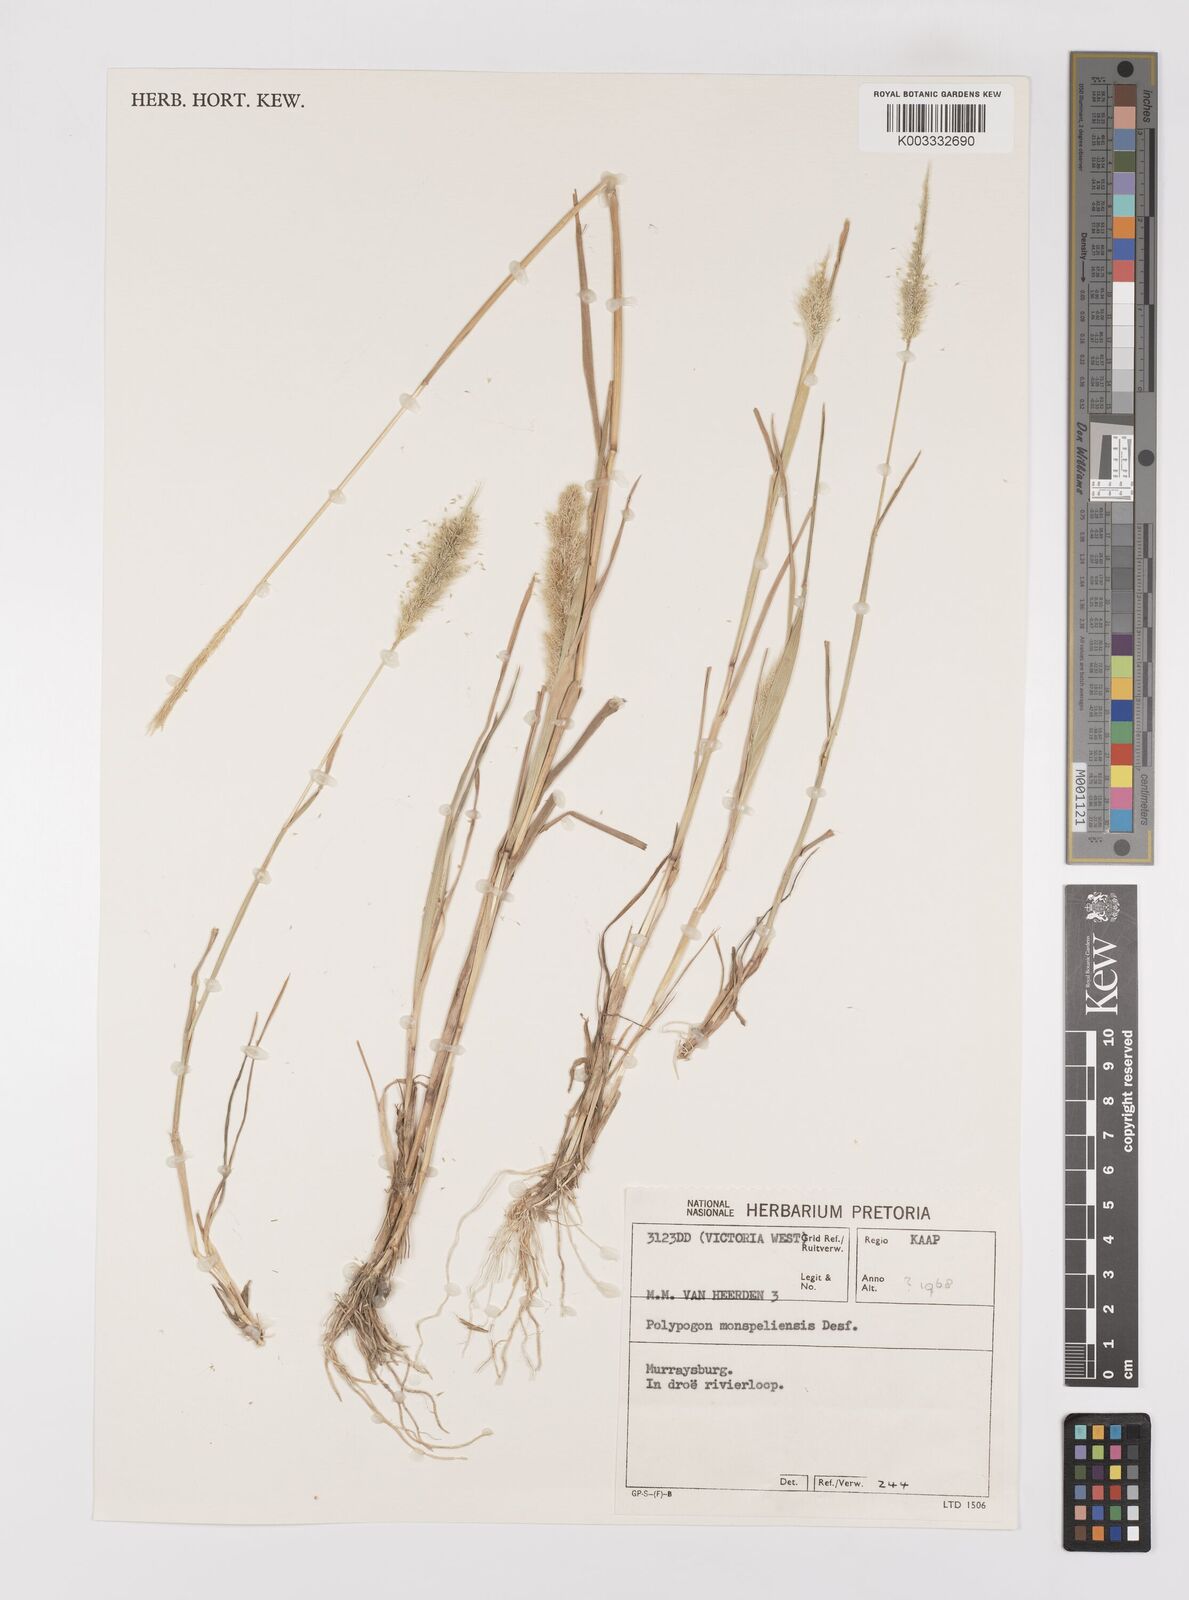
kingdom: Plantae
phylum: Tracheophyta
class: Liliopsida
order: Poales
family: Poaceae
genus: Polypogon
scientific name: Polypogon monspeliensis
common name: Annual rabbitsfoot grass
